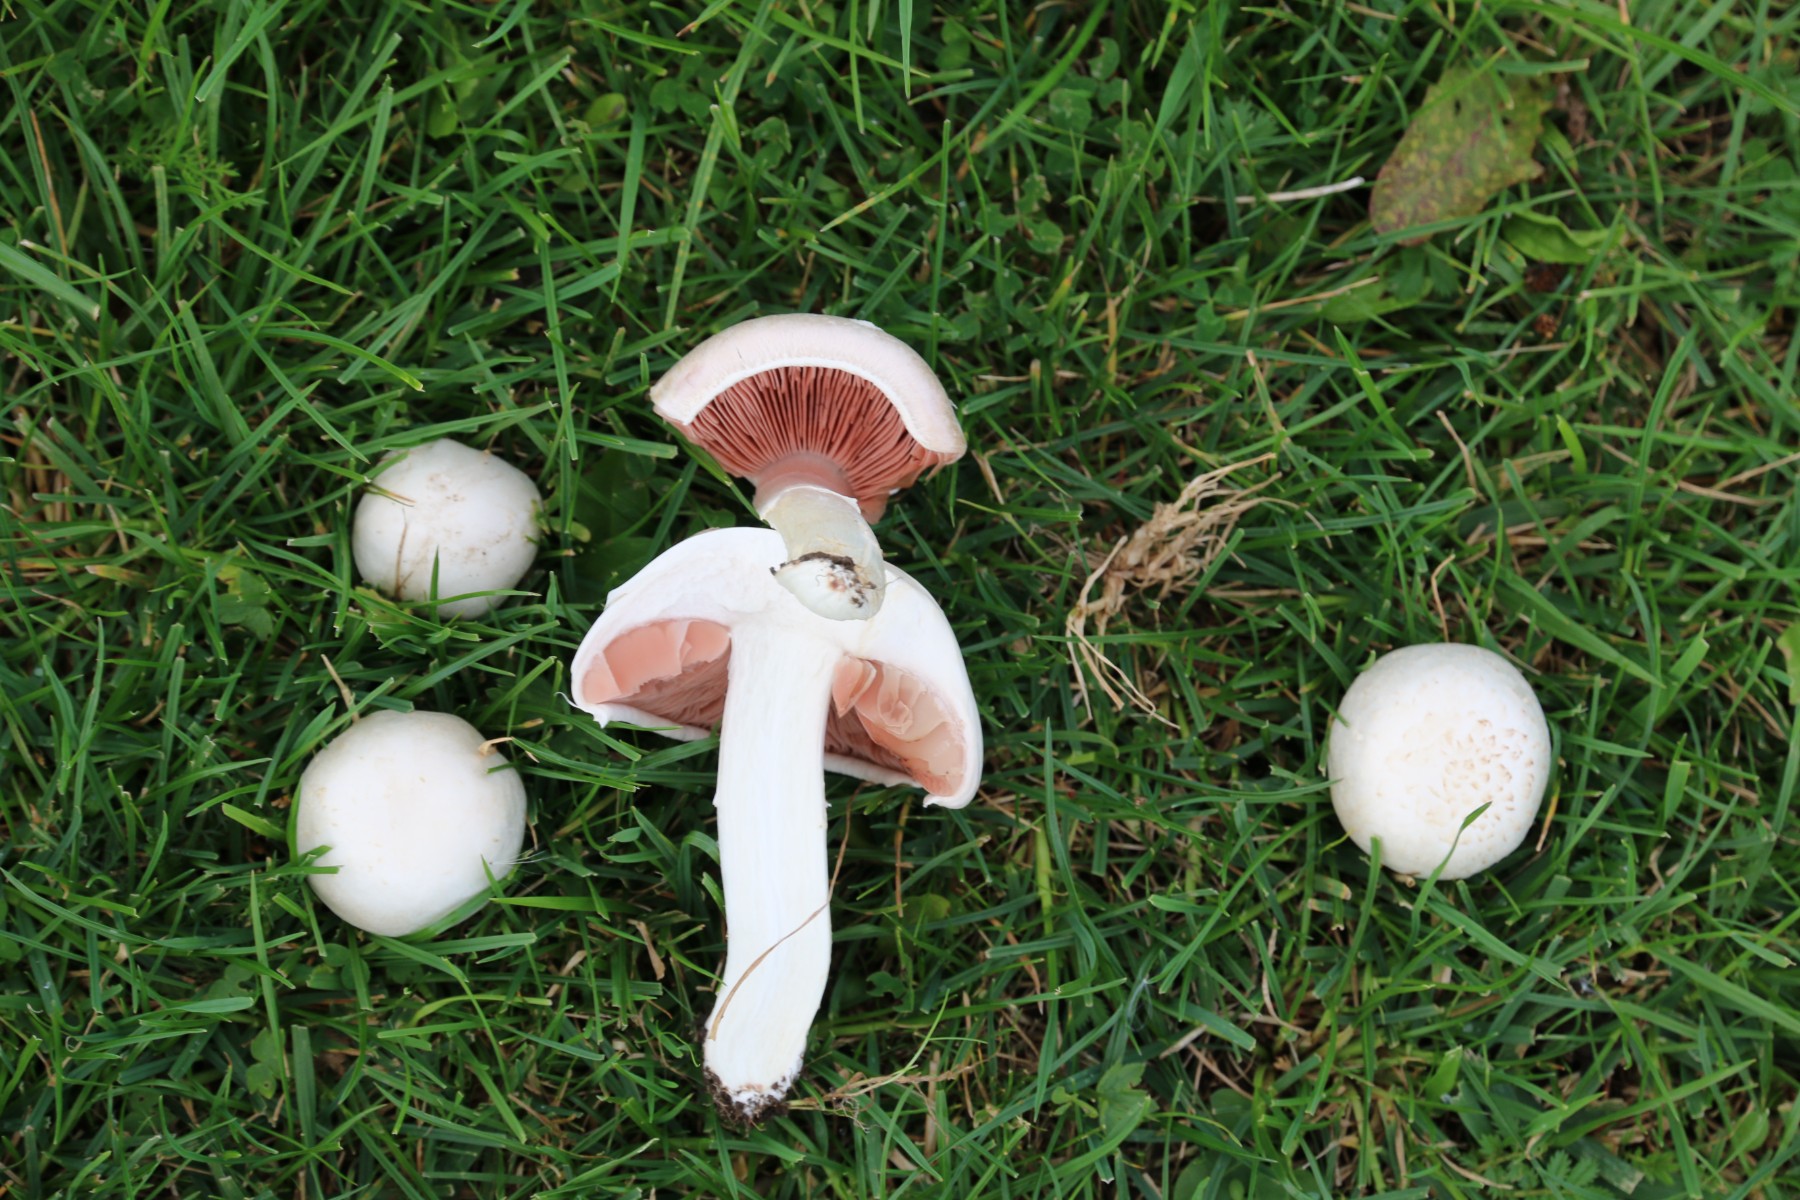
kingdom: Fungi
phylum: Basidiomycota
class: Agaricomycetes
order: Agaricales
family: Agaricaceae
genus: Agaricus
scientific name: Agaricus campestris
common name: mark-champignon
